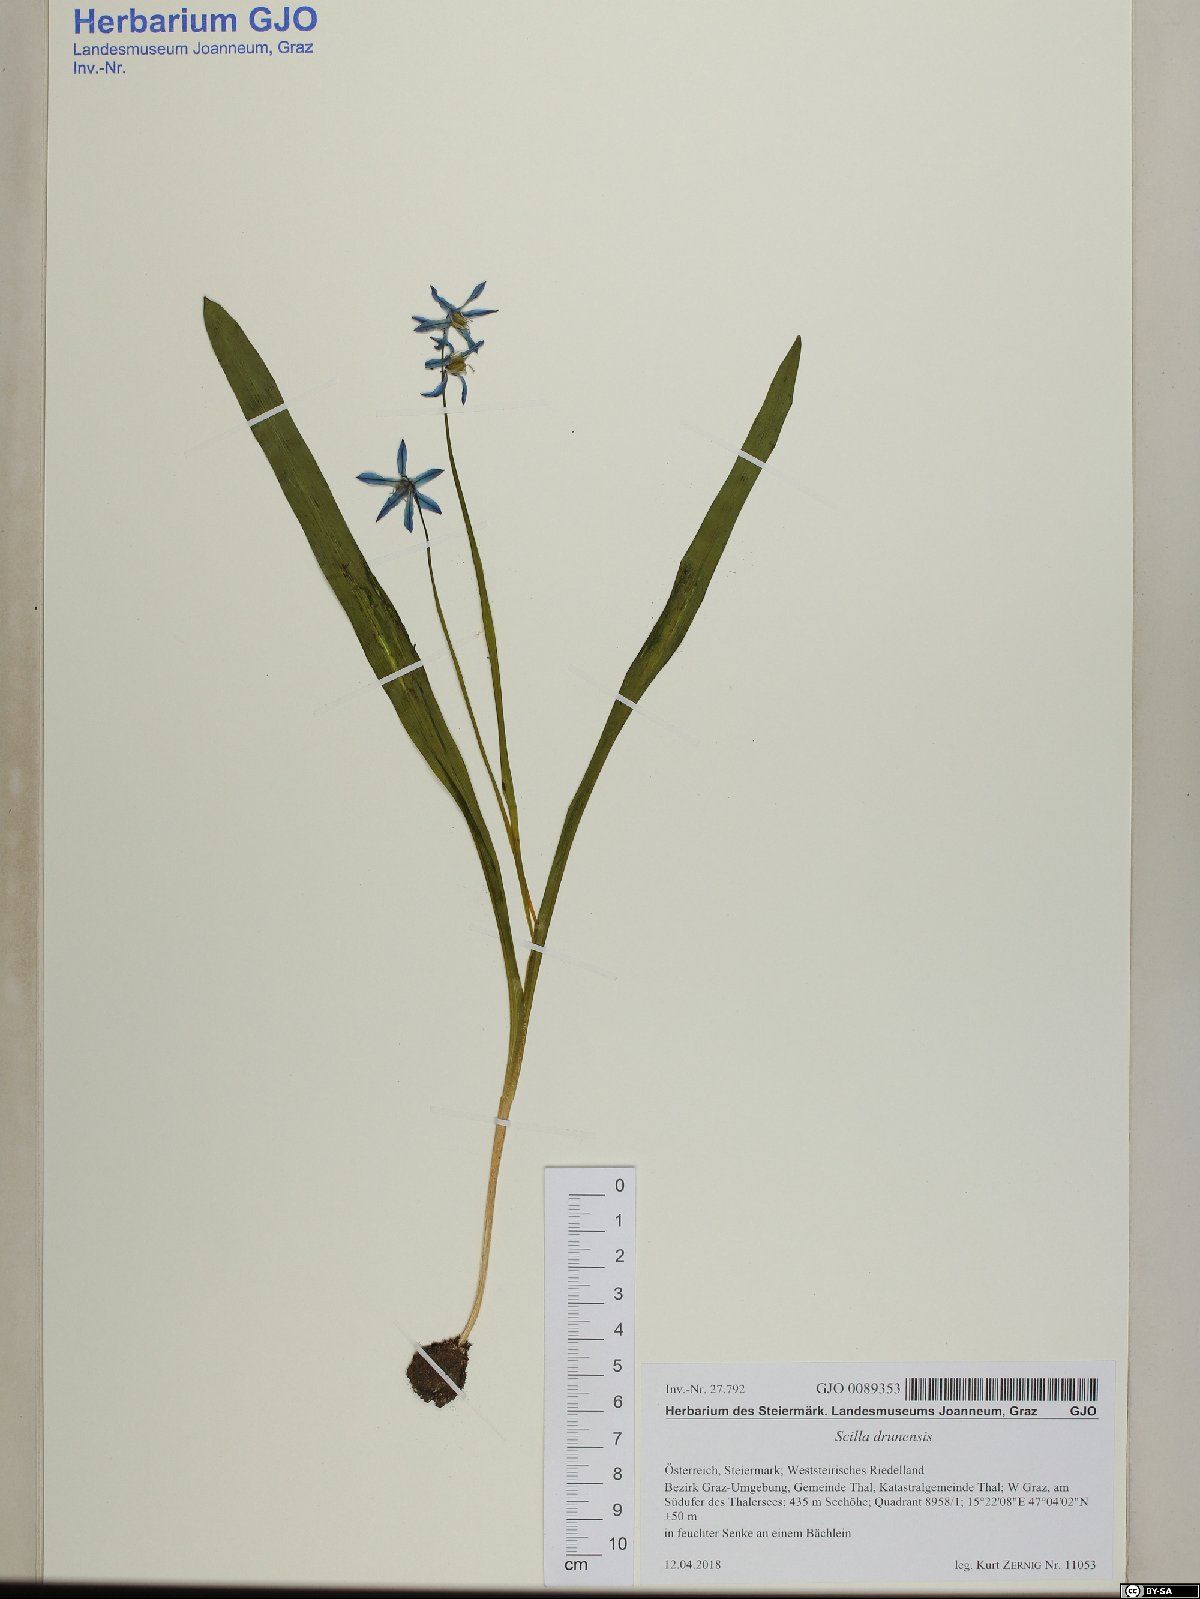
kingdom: Plantae
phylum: Tracheophyta
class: Liliopsida
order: Asparagales
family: Asparagaceae
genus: Scilla
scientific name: Scilla bifolia
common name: Alpine squill
